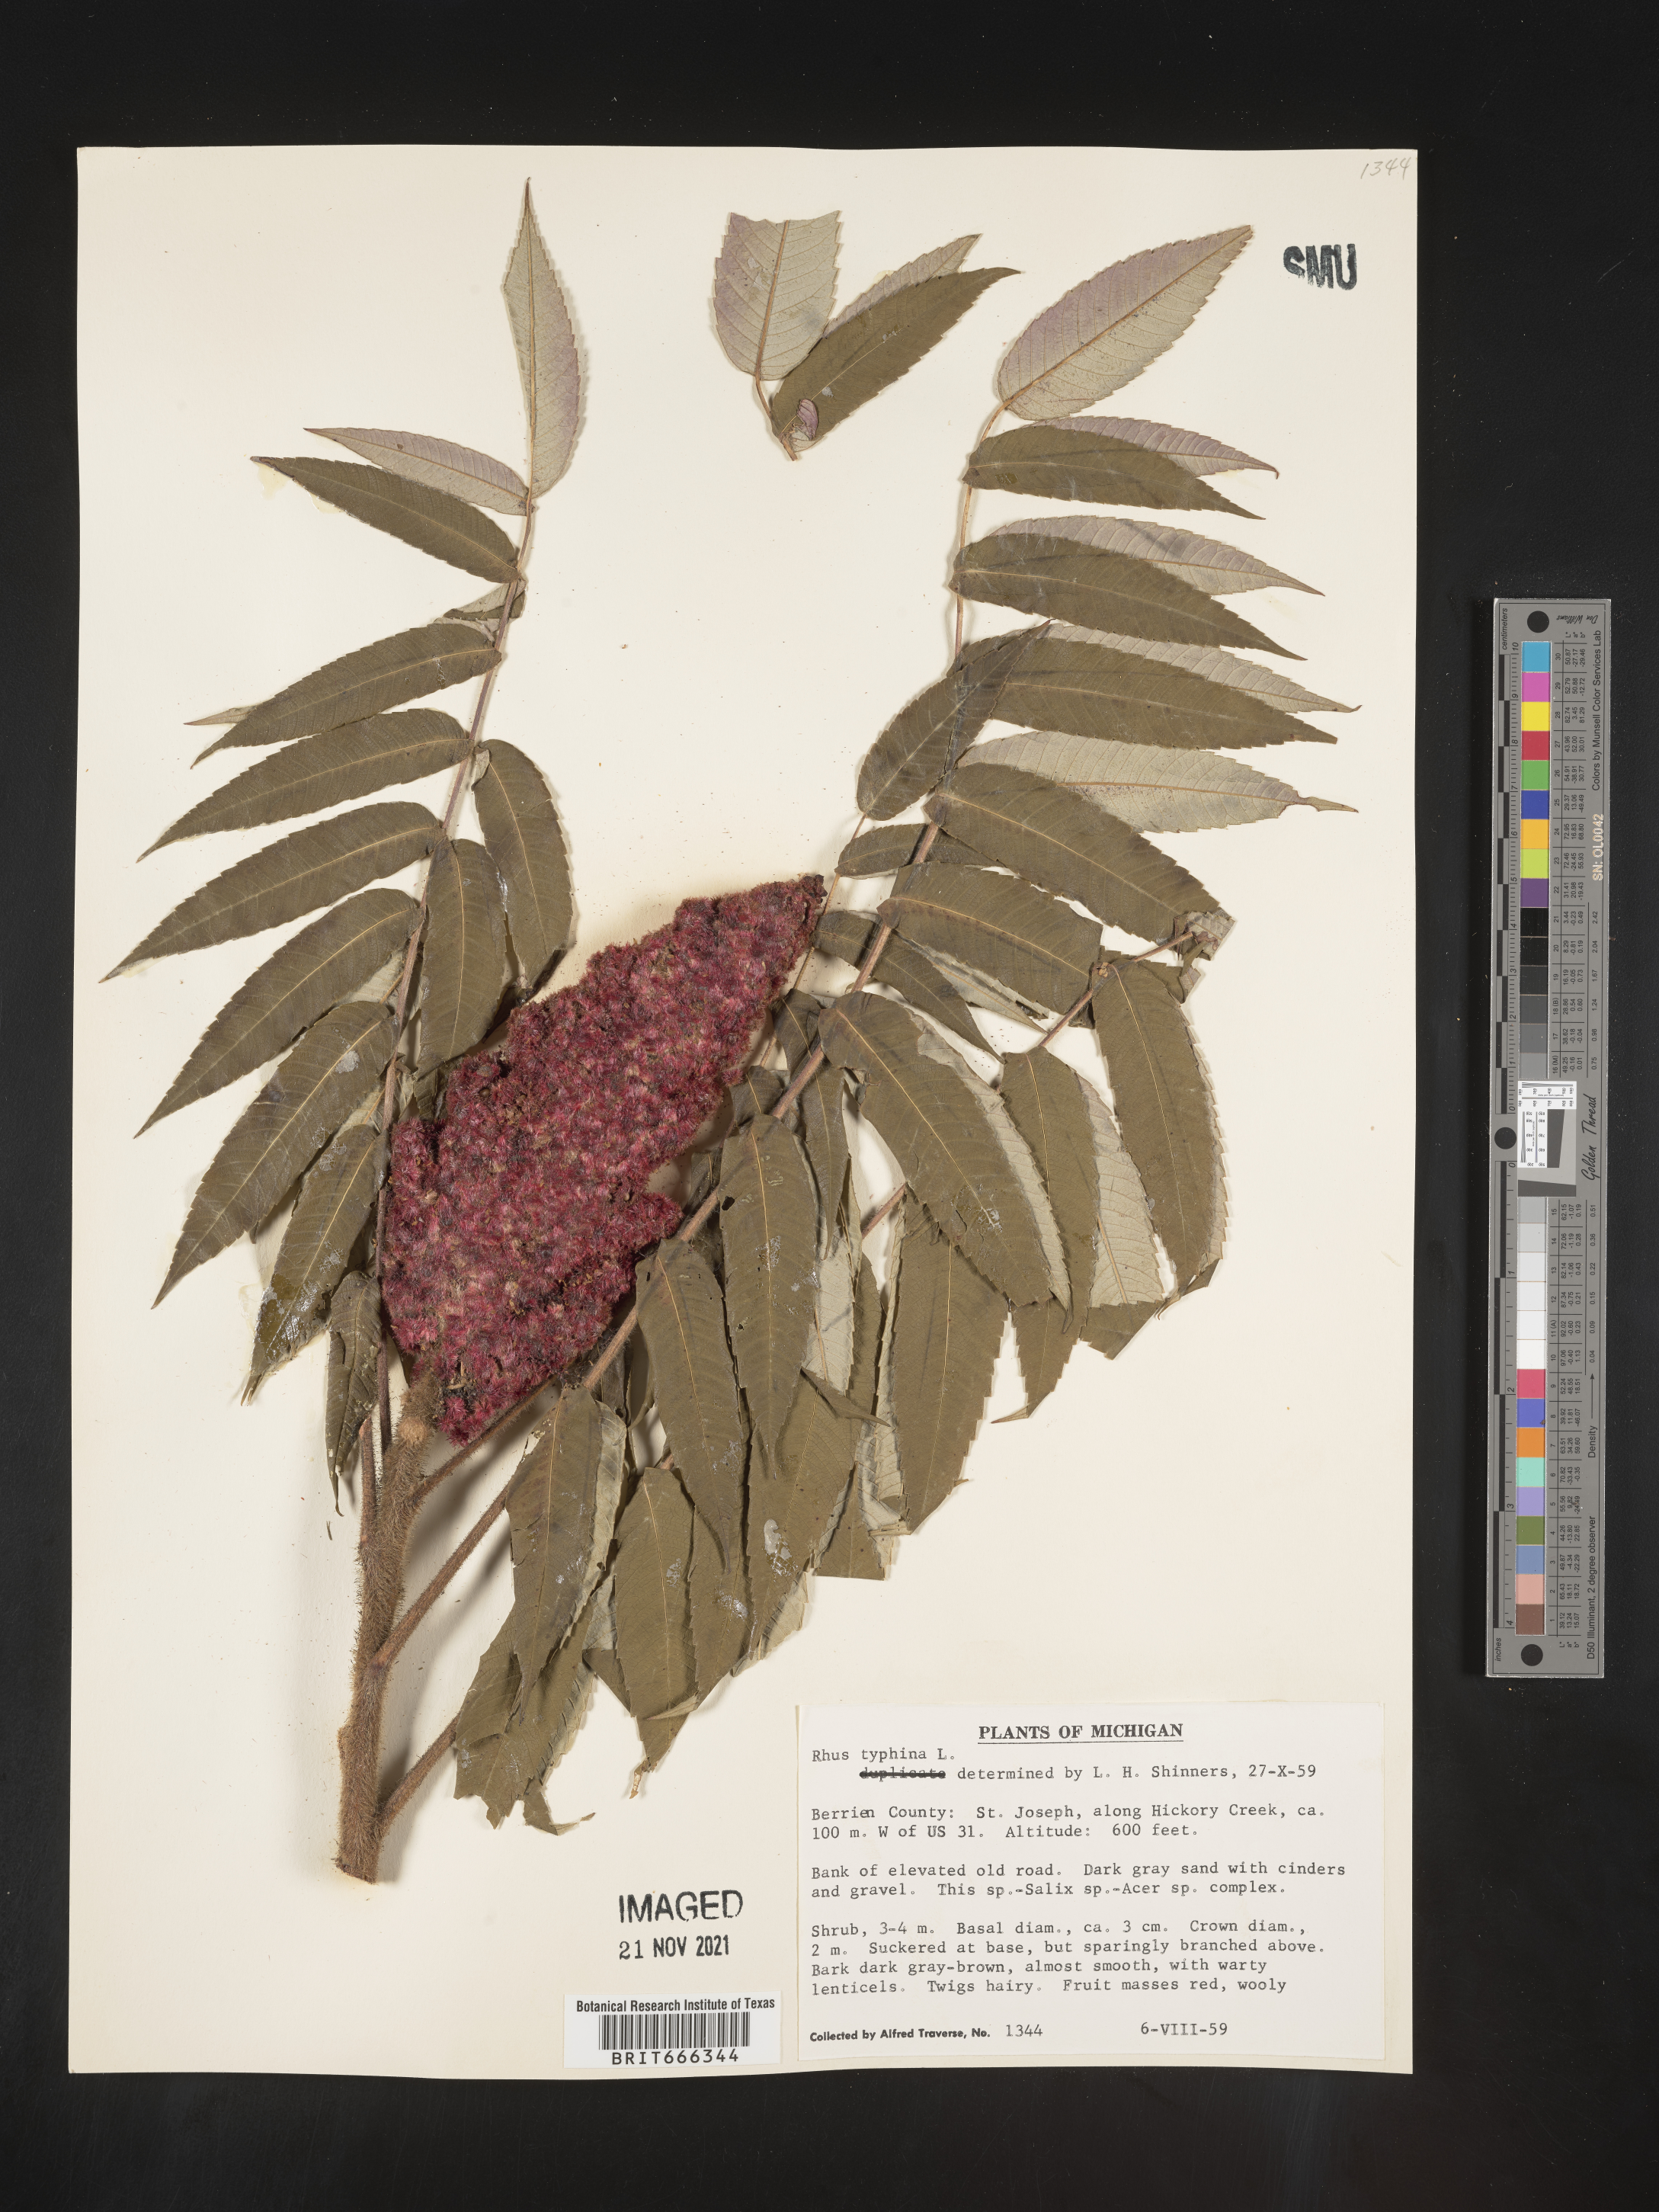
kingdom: Plantae
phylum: Tracheophyta
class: Magnoliopsida
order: Sapindales
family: Anacardiaceae
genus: Rhus
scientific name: Rhus typhina
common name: Staghorn sumac
